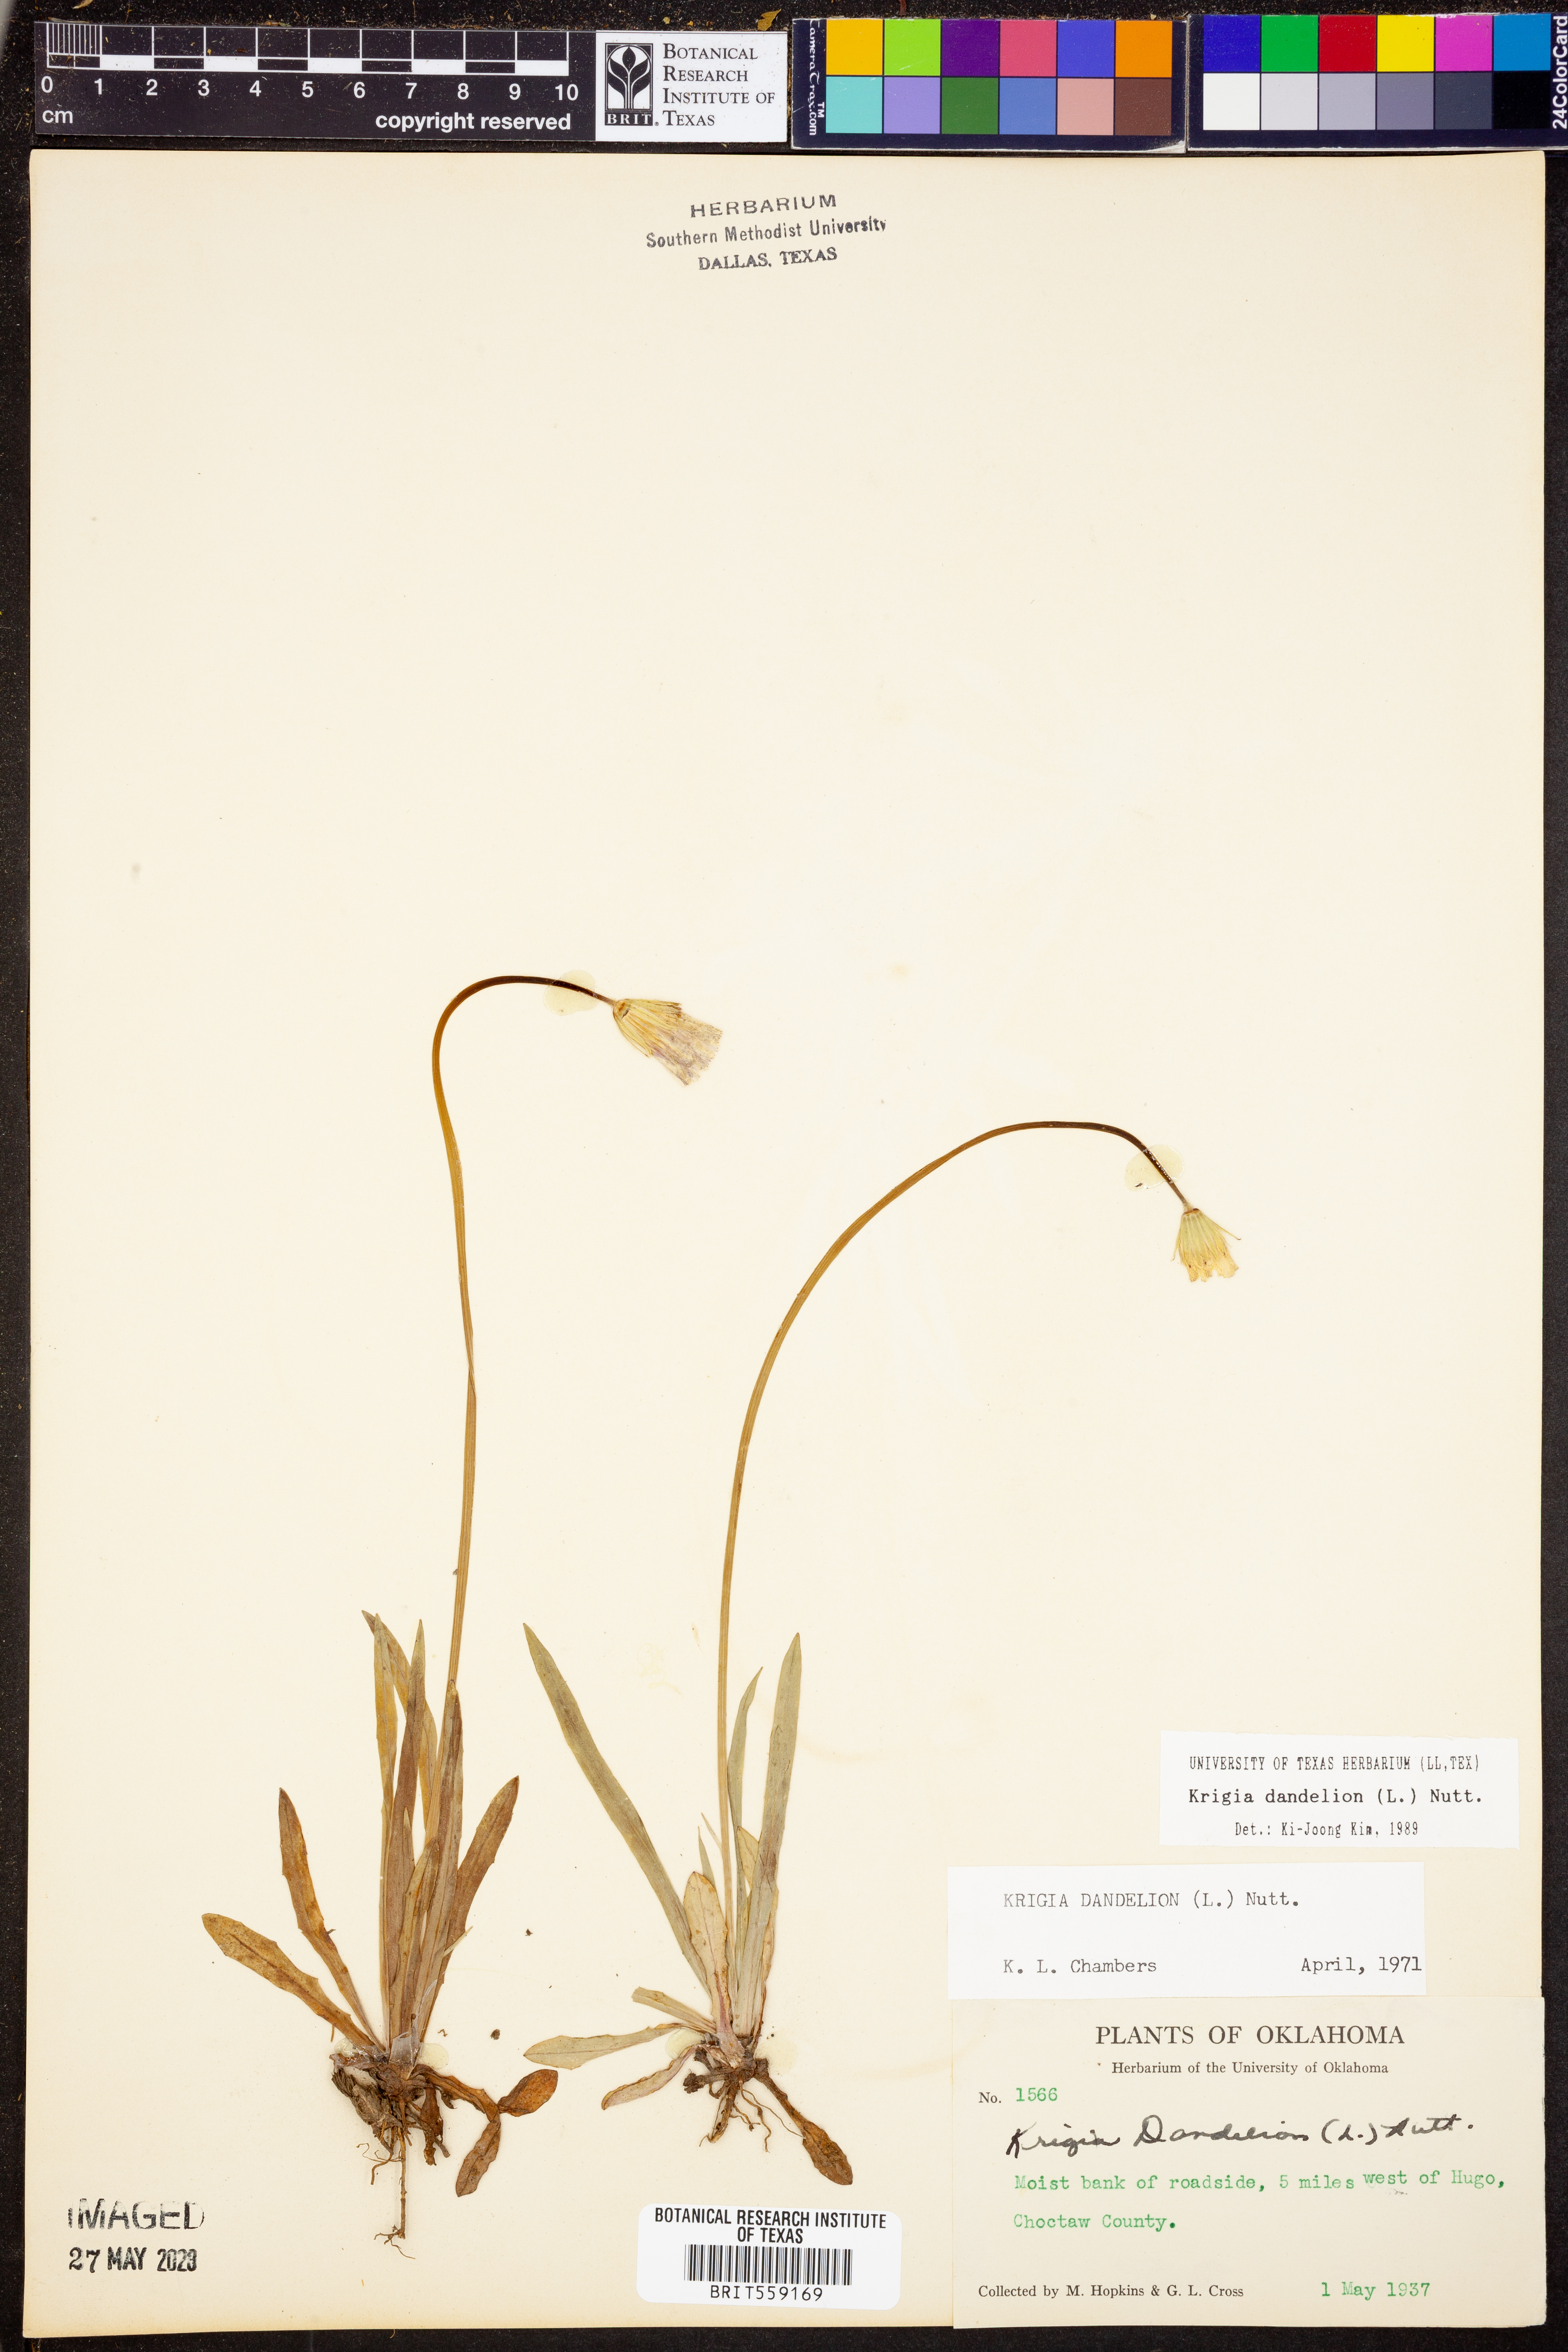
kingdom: Plantae
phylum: Tracheophyta
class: Magnoliopsida
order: Asterales
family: Asteraceae
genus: Krigia
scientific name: Krigia dandelion
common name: Colonial dwarf-dandelion
